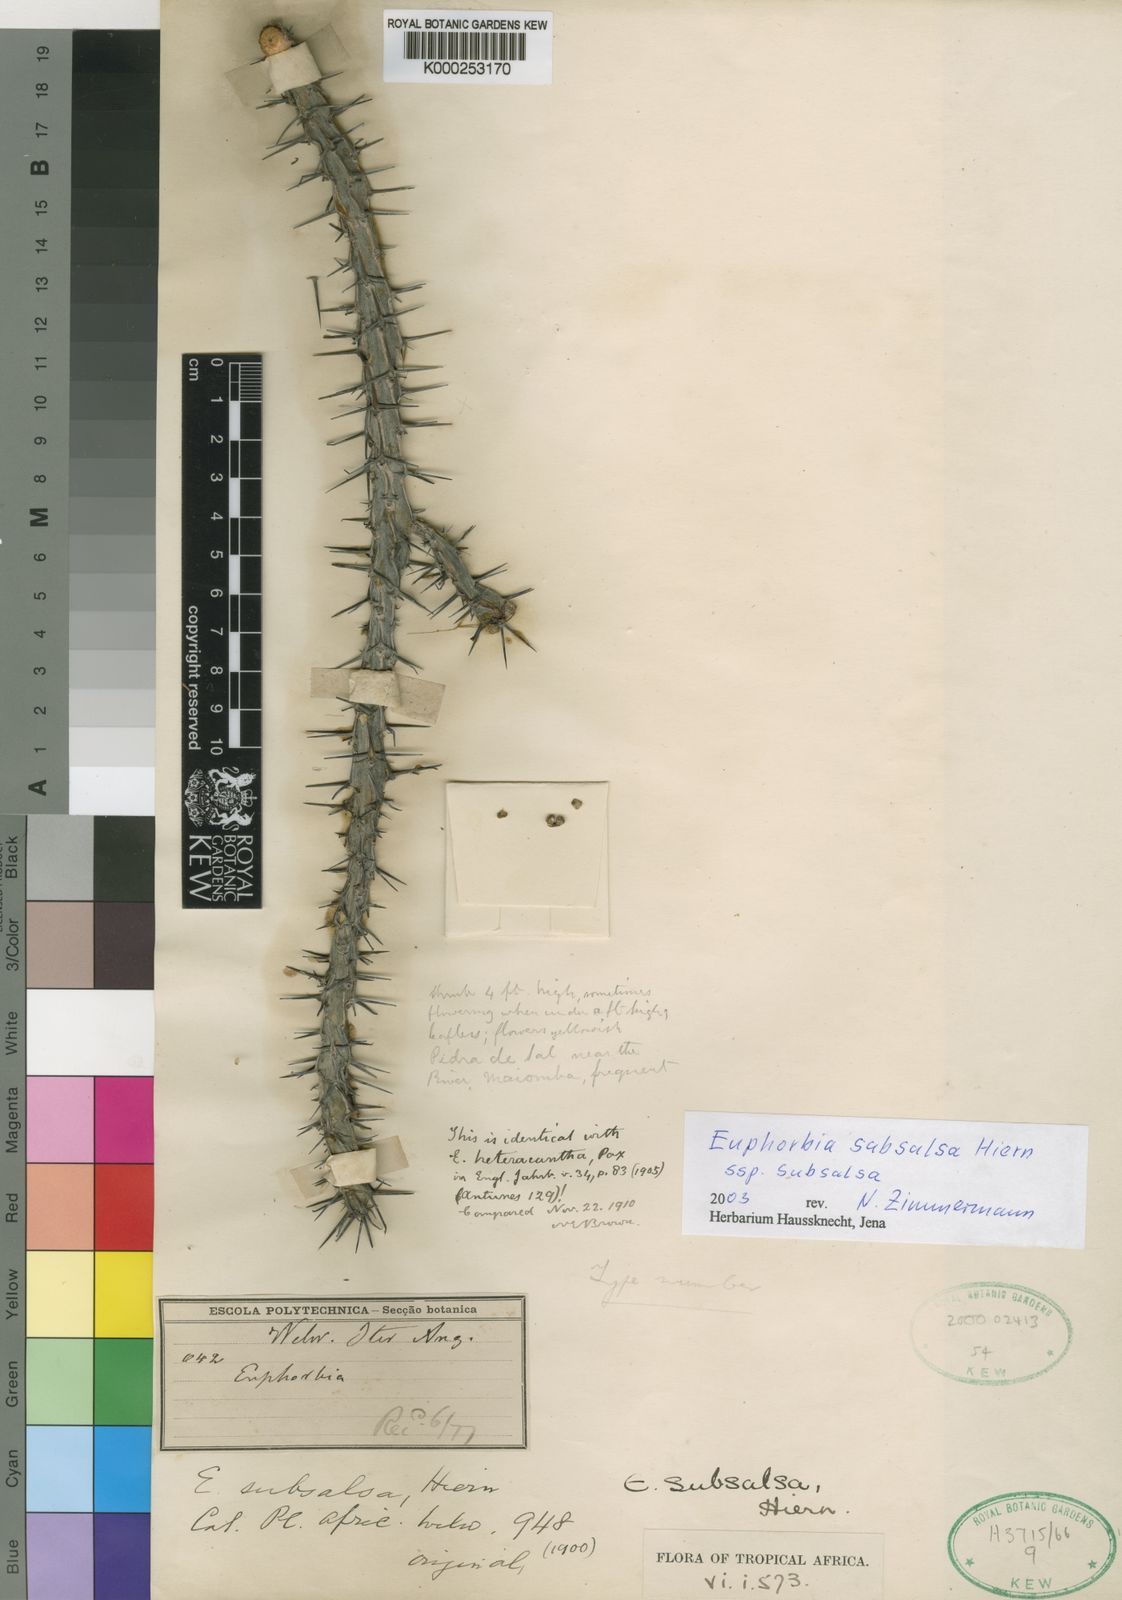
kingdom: Plantae
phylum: Tracheophyta
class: Magnoliopsida
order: Malpighiales
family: Euphorbiaceae
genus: Euphorbia
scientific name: Euphorbia subsalsa
